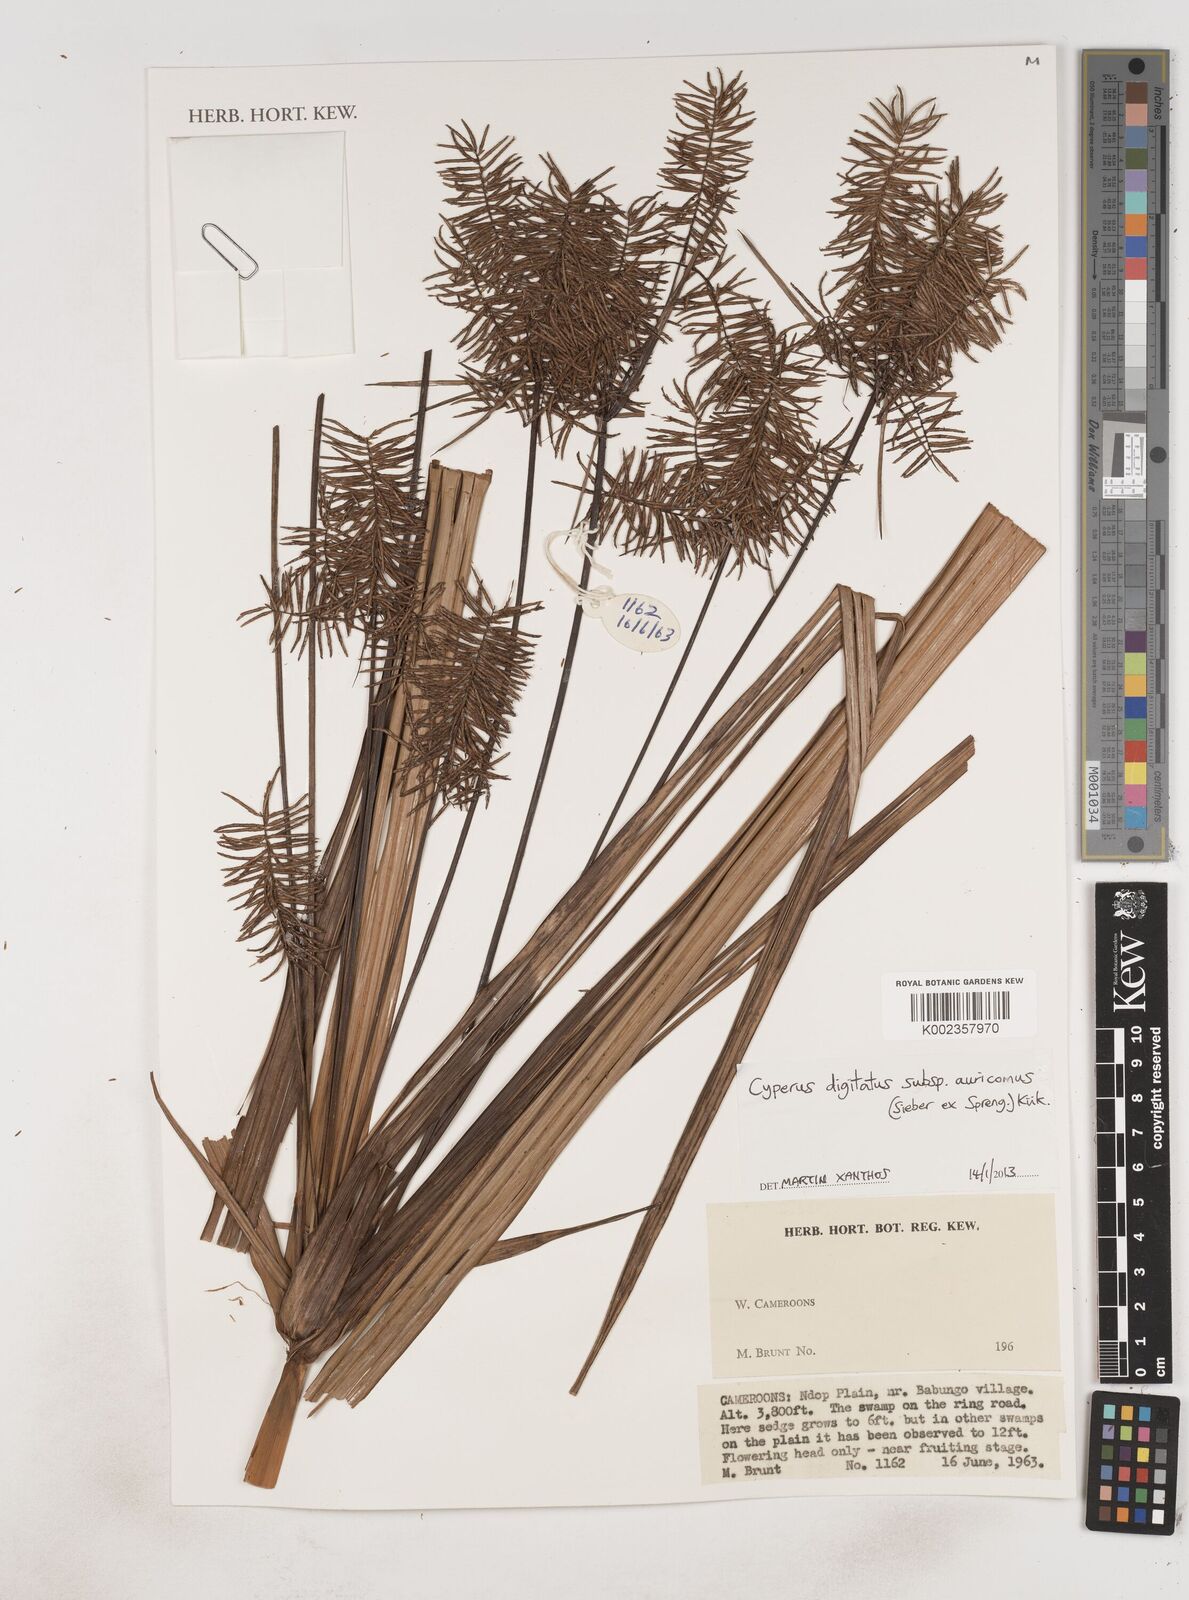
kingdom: Plantae
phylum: Tracheophyta
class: Liliopsida
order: Poales
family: Cyperaceae
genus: Cyperus
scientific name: Cyperus digitatus
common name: Finger flatsedge
